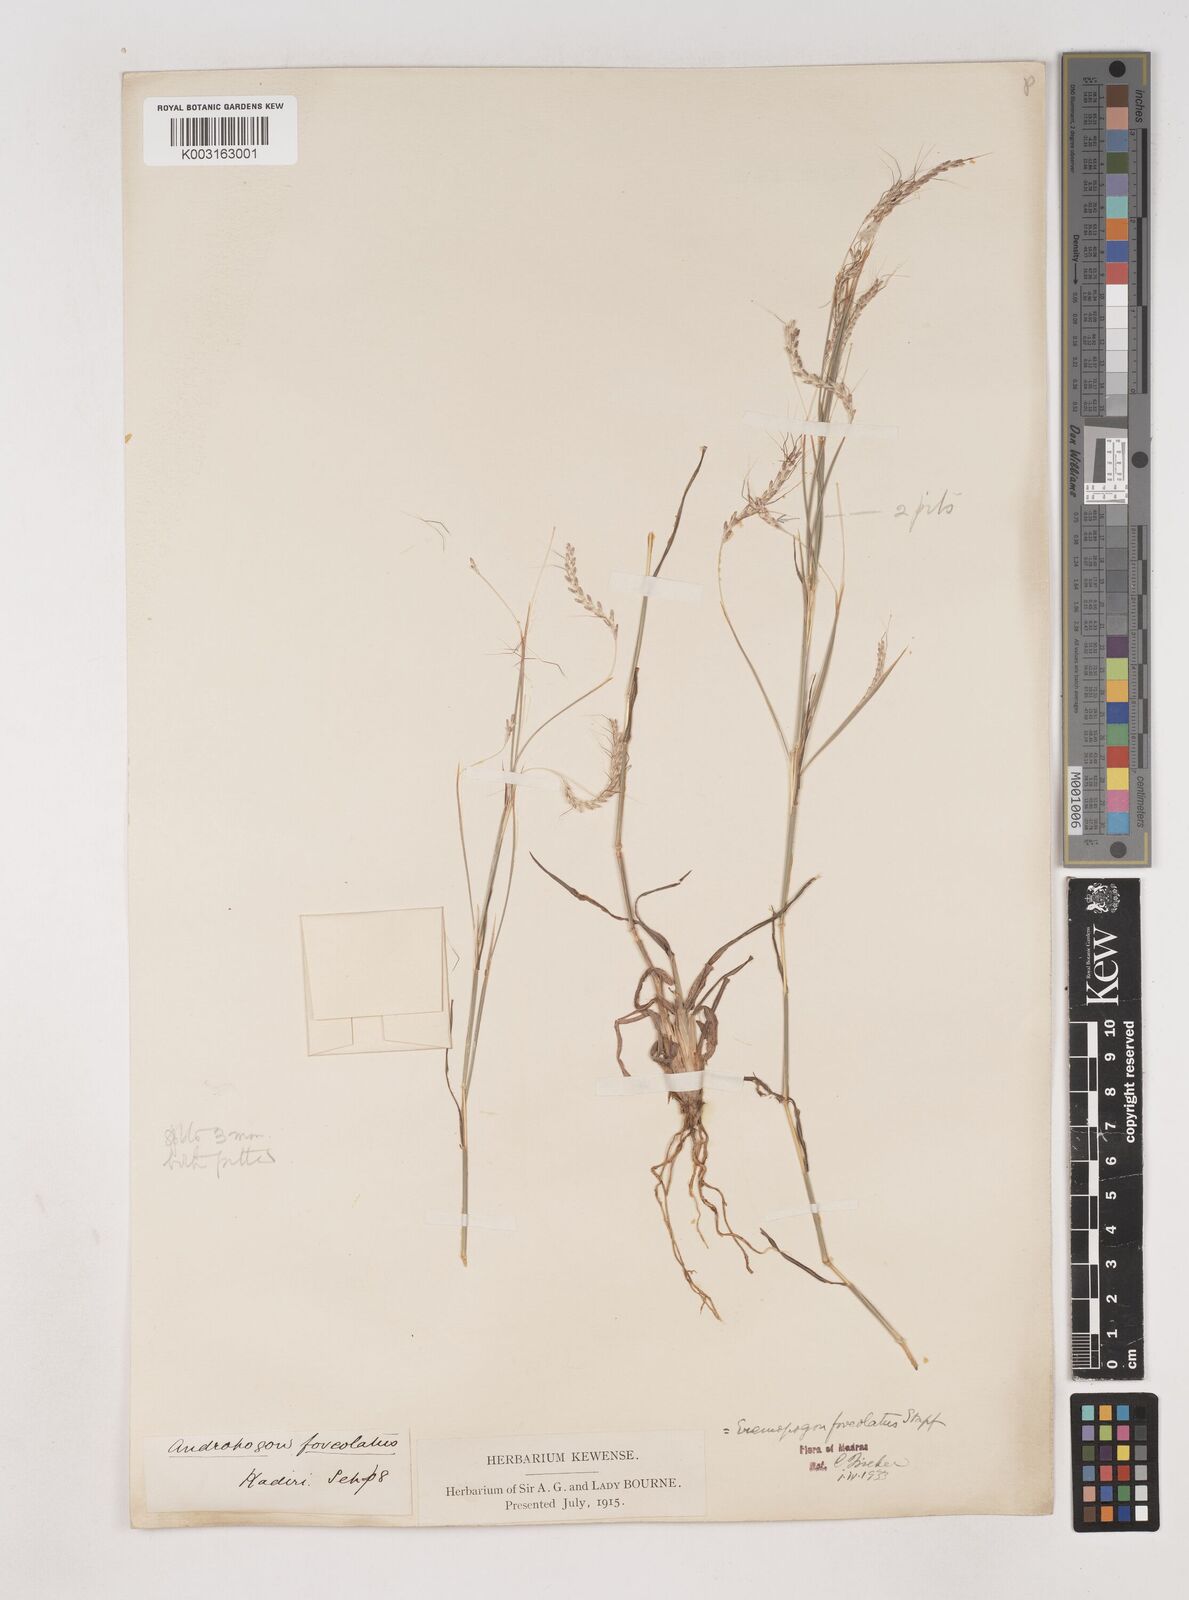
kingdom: Plantae
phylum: Tracheophyta
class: Liliopsida
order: Poales
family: Poaceae
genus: Dichanthium
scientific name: Dichanthium foveolatum
